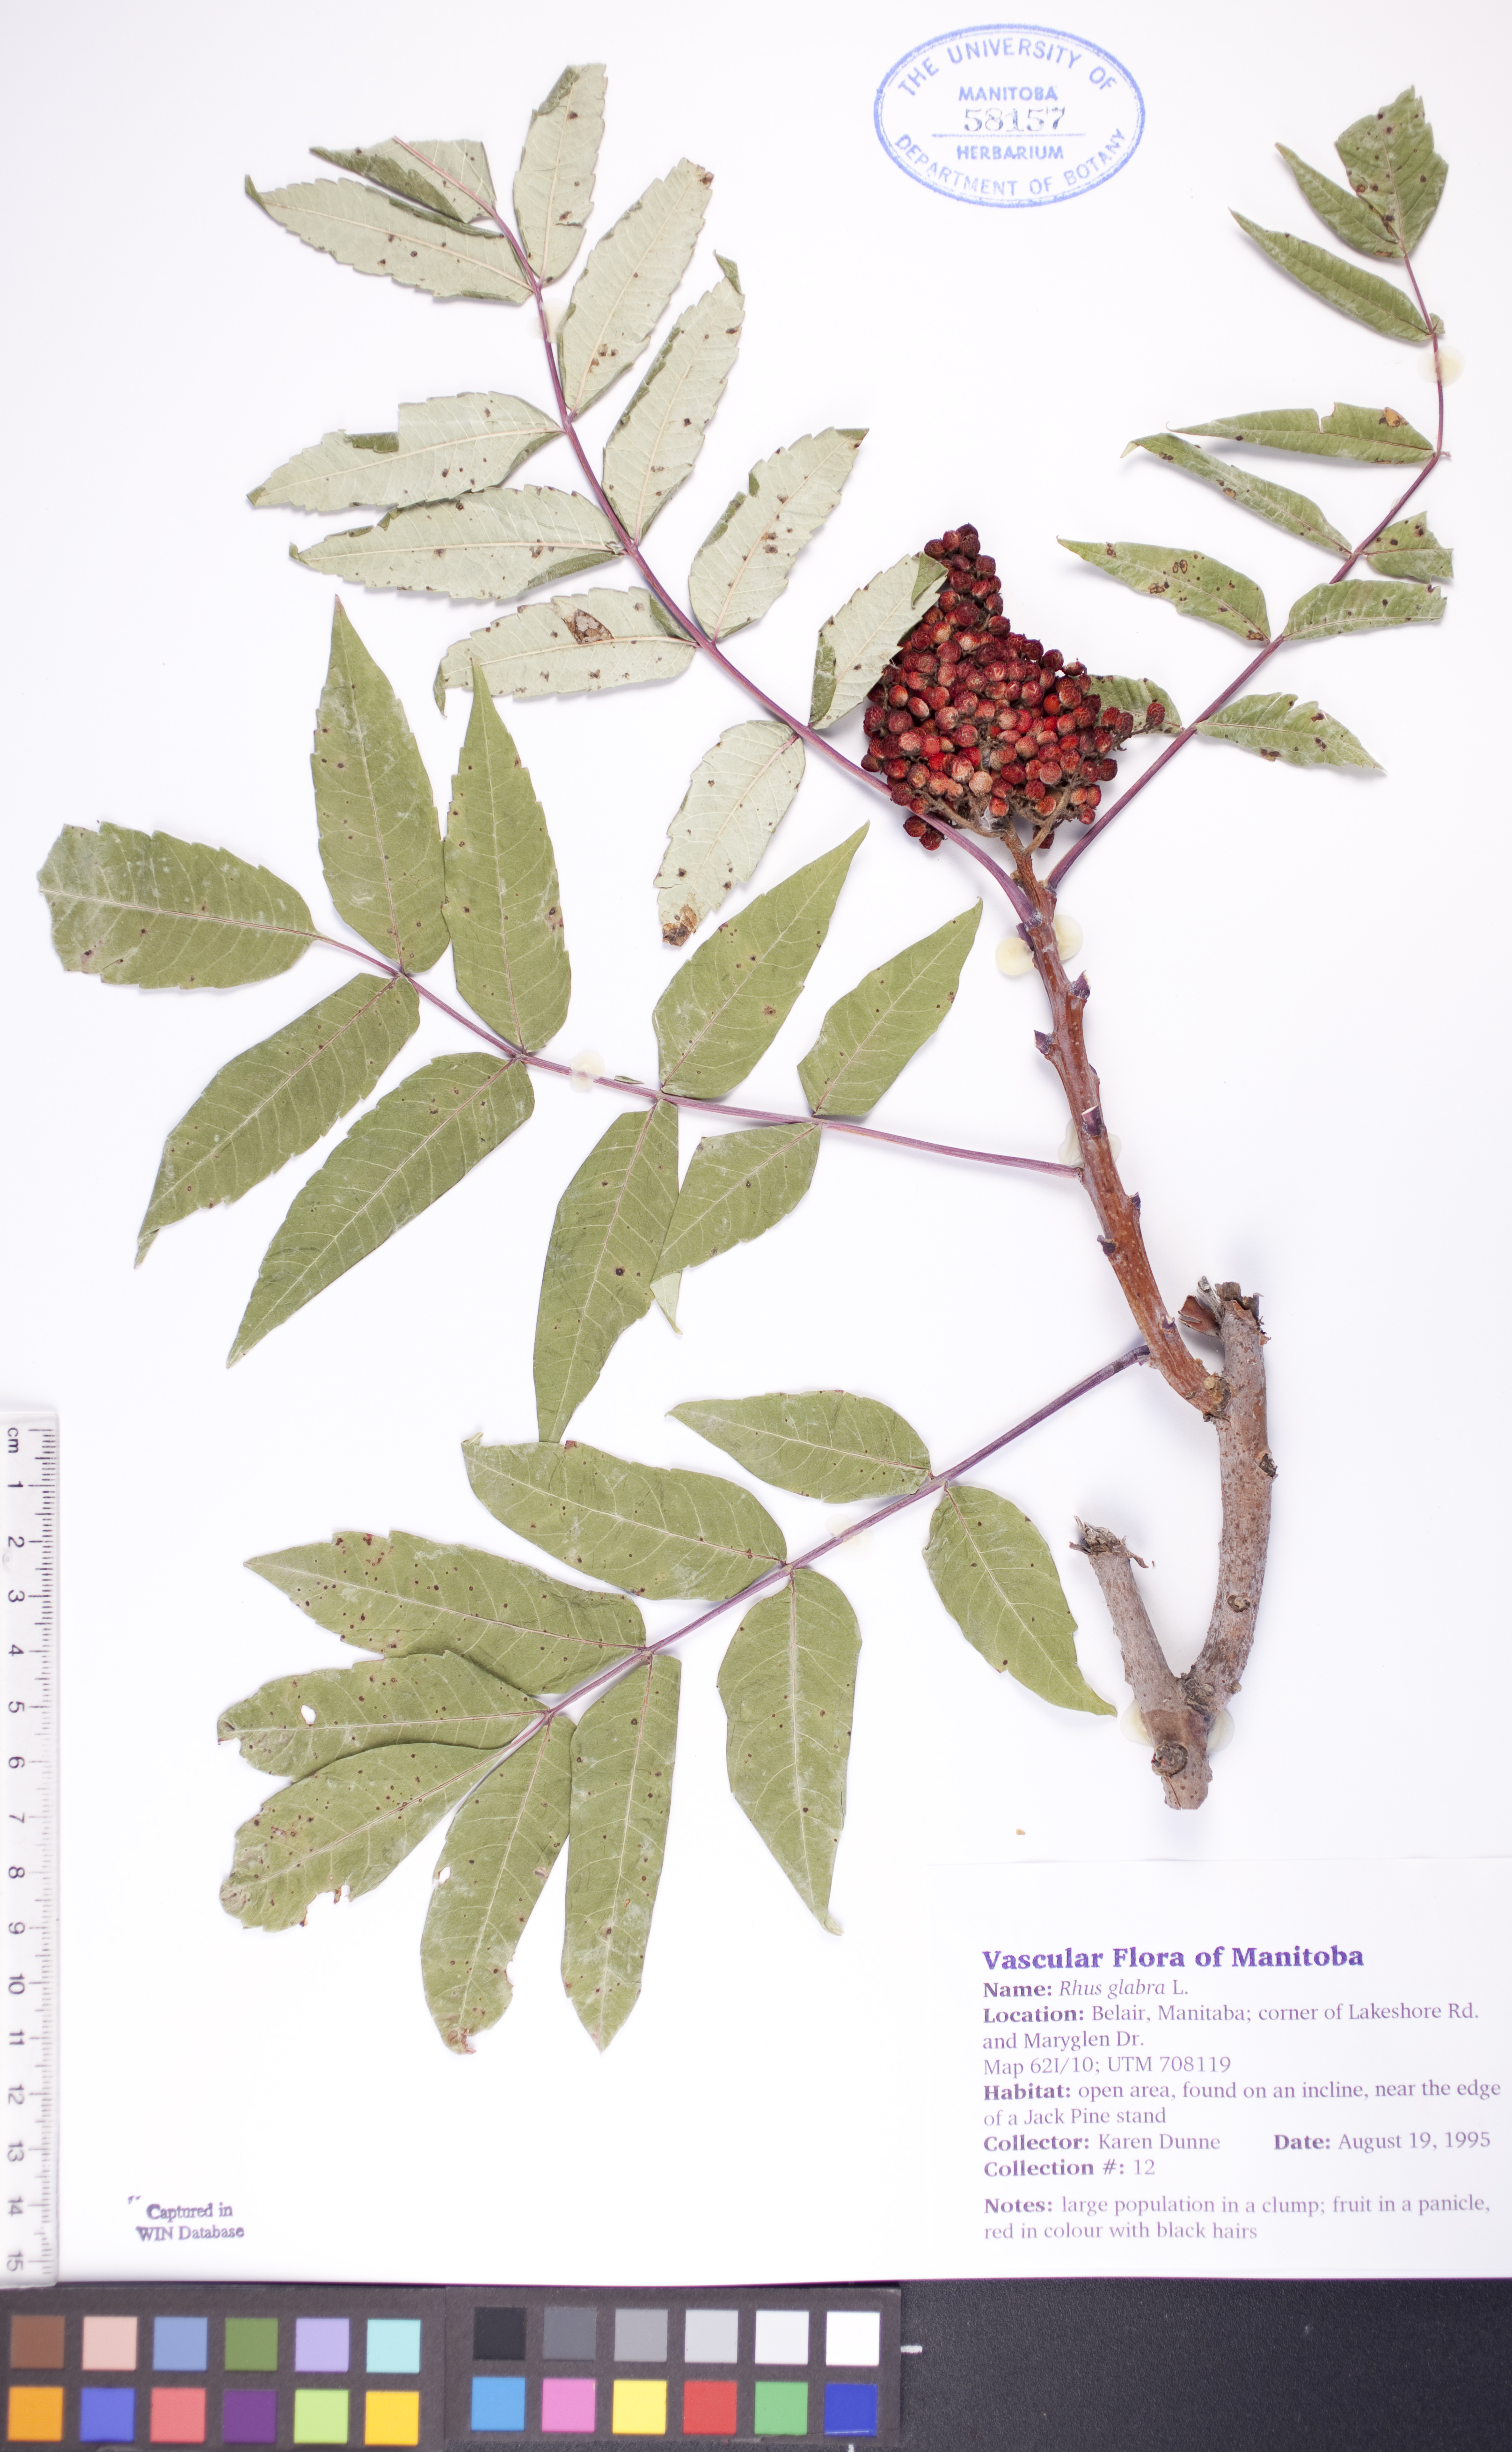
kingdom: Plantae
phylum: Tracheophyta
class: Magnoliopsida
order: Sapindales
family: Anacardiaceae
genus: Rhus
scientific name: Rhus glabra
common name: Scarlet sumac
